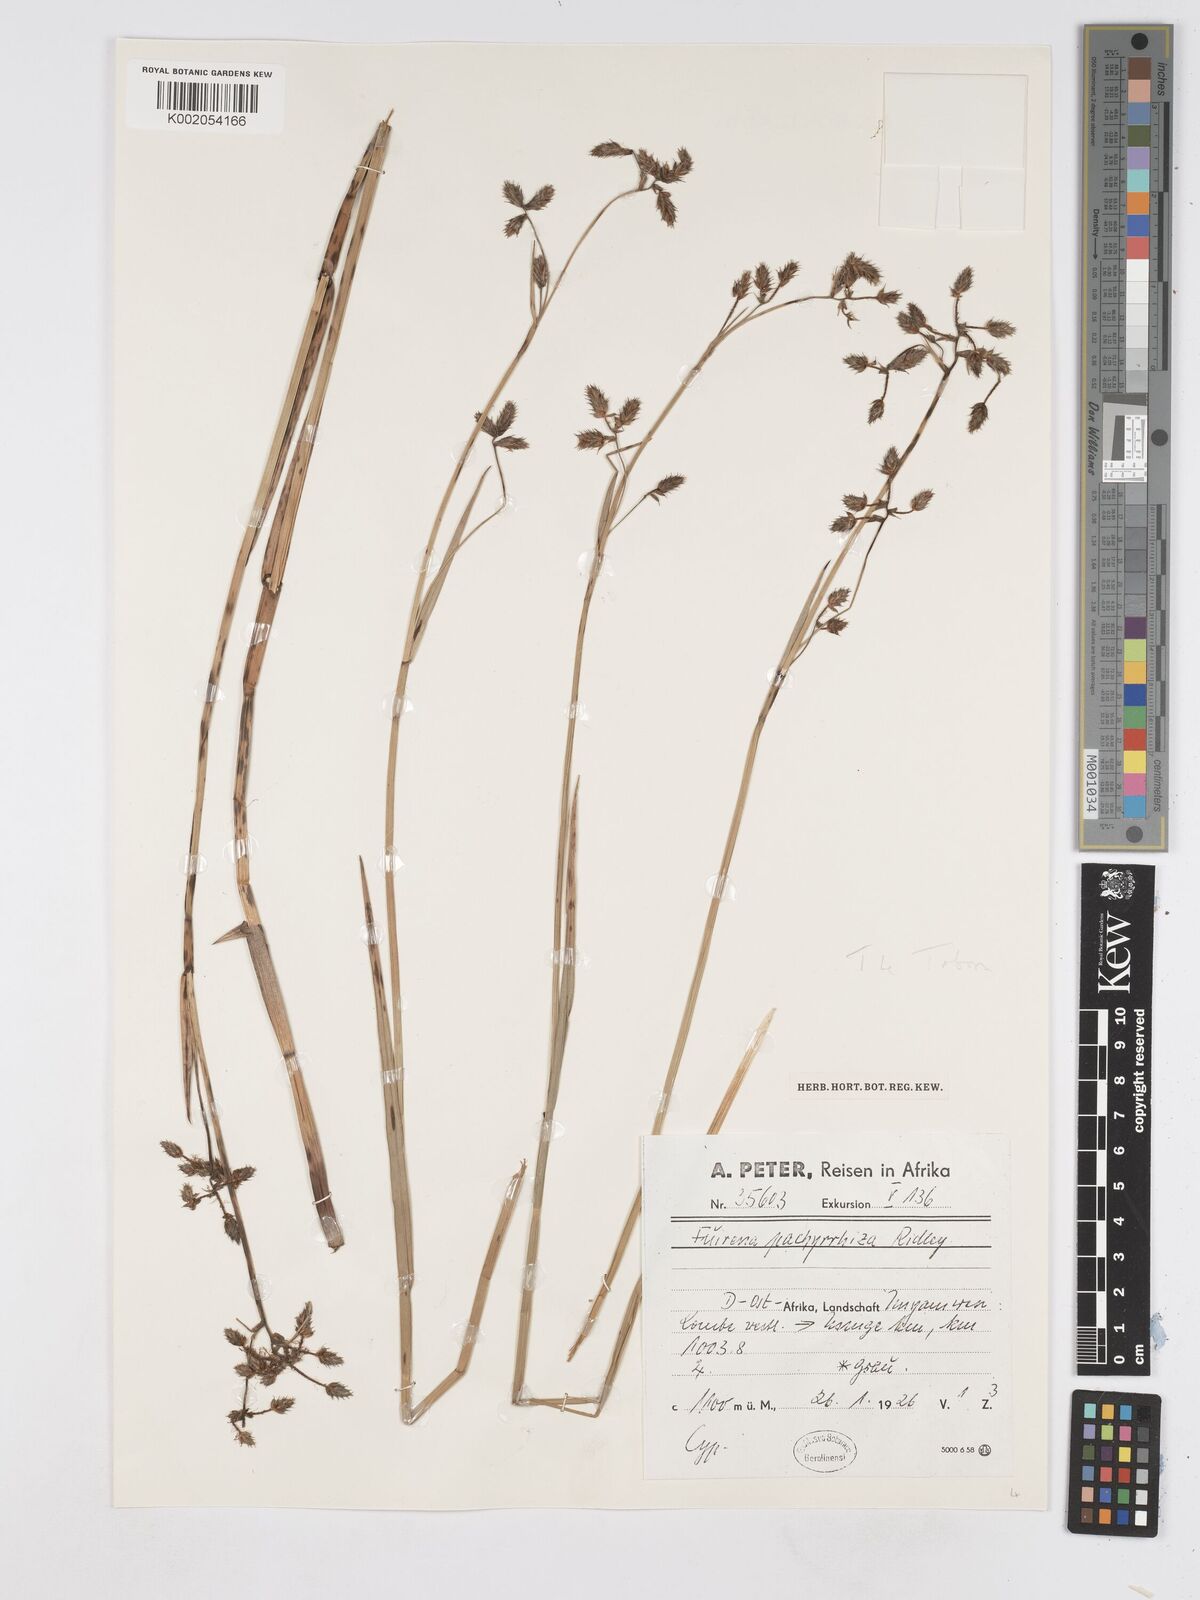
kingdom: Plantae
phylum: Tracheophyta
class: Liliopsida
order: Poales
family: Cyperaceae
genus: Fuirena
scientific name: Fuirena pachyrrhiza
